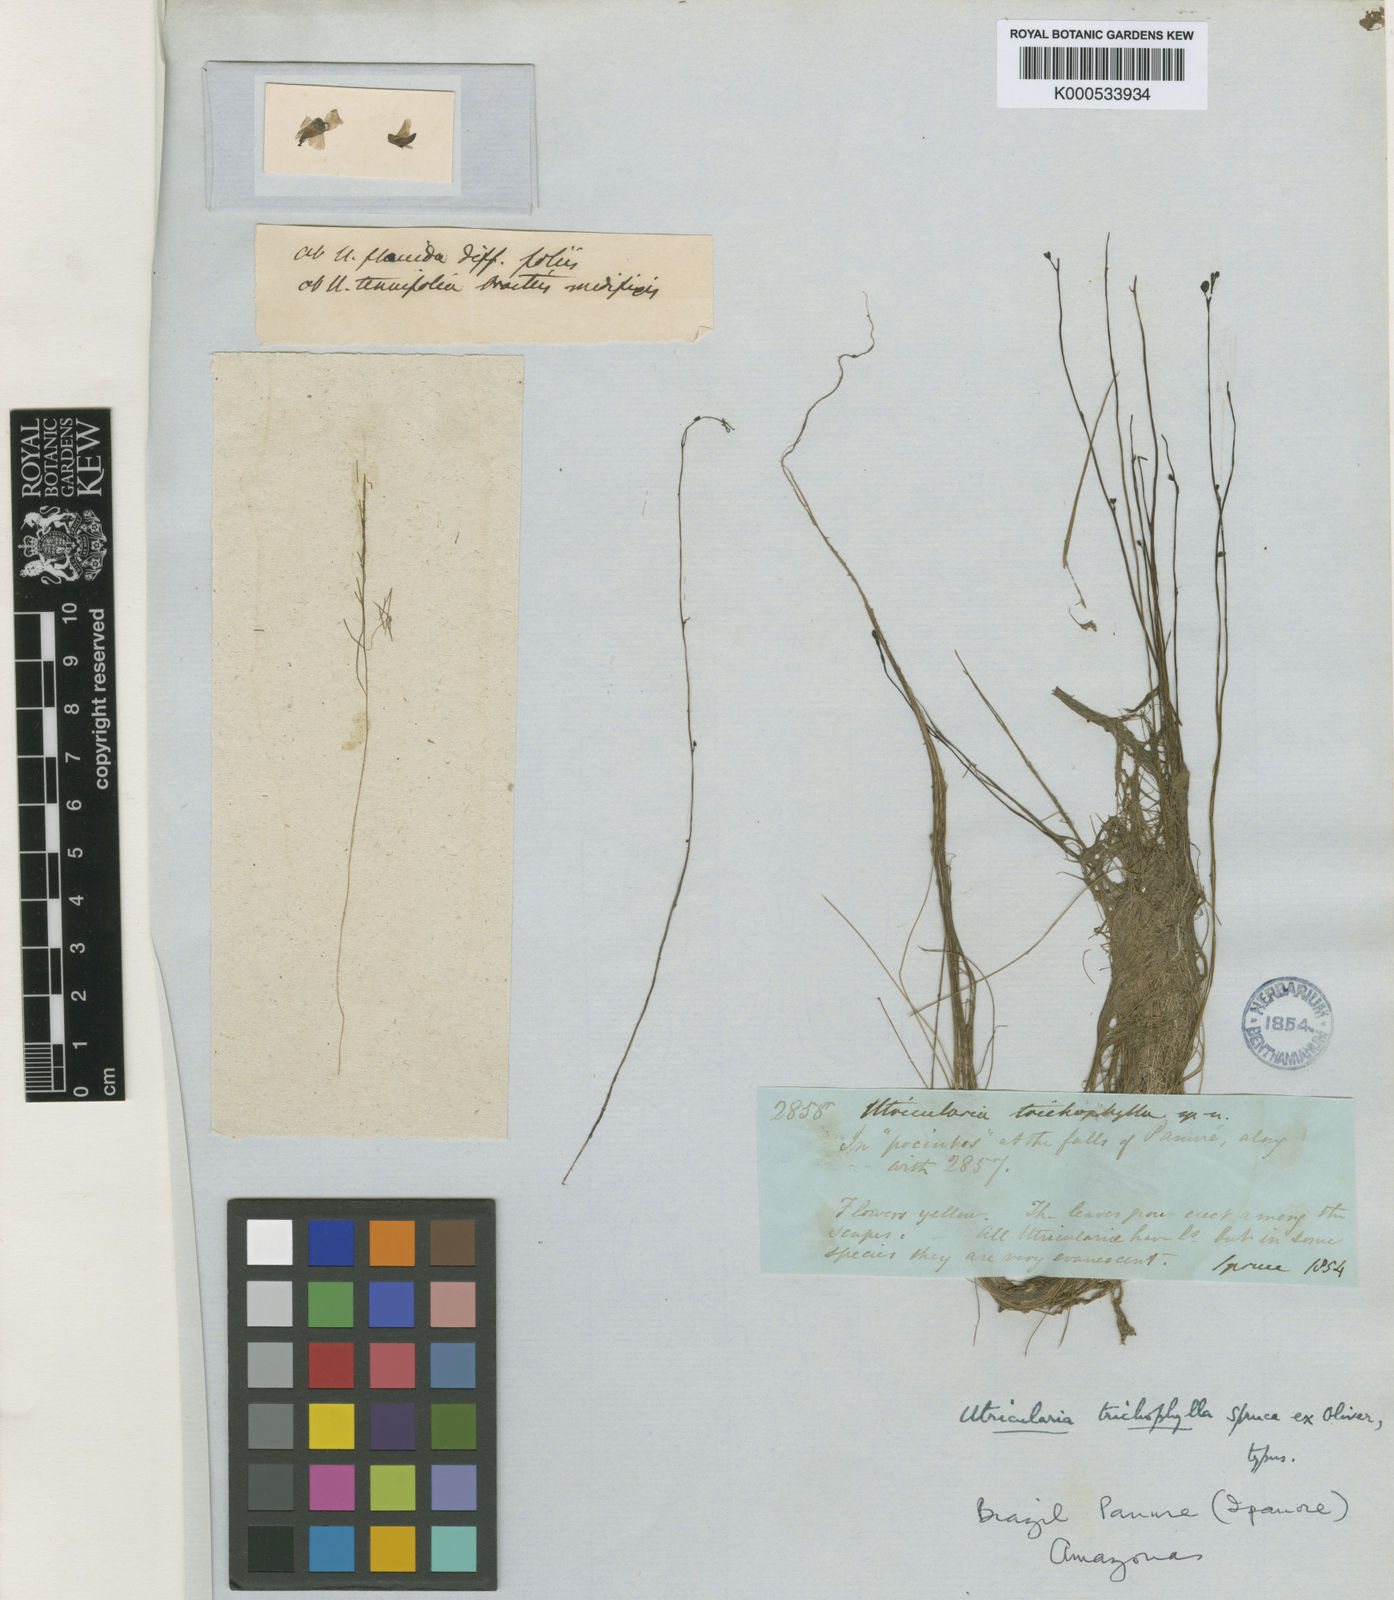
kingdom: Plantae
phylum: Tracheophyta
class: Magnoliopsida
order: Lamiales
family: Lentibulariaceae
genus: Utricularia
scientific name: Utricularia trichophylla
